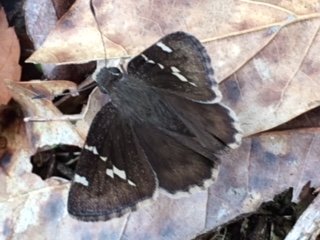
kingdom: Animalia
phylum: Arthropoda
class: Insecta
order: Lepidoptera
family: Hesperiidae
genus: Autochton
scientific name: Autochton
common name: Southern Cloudywing
